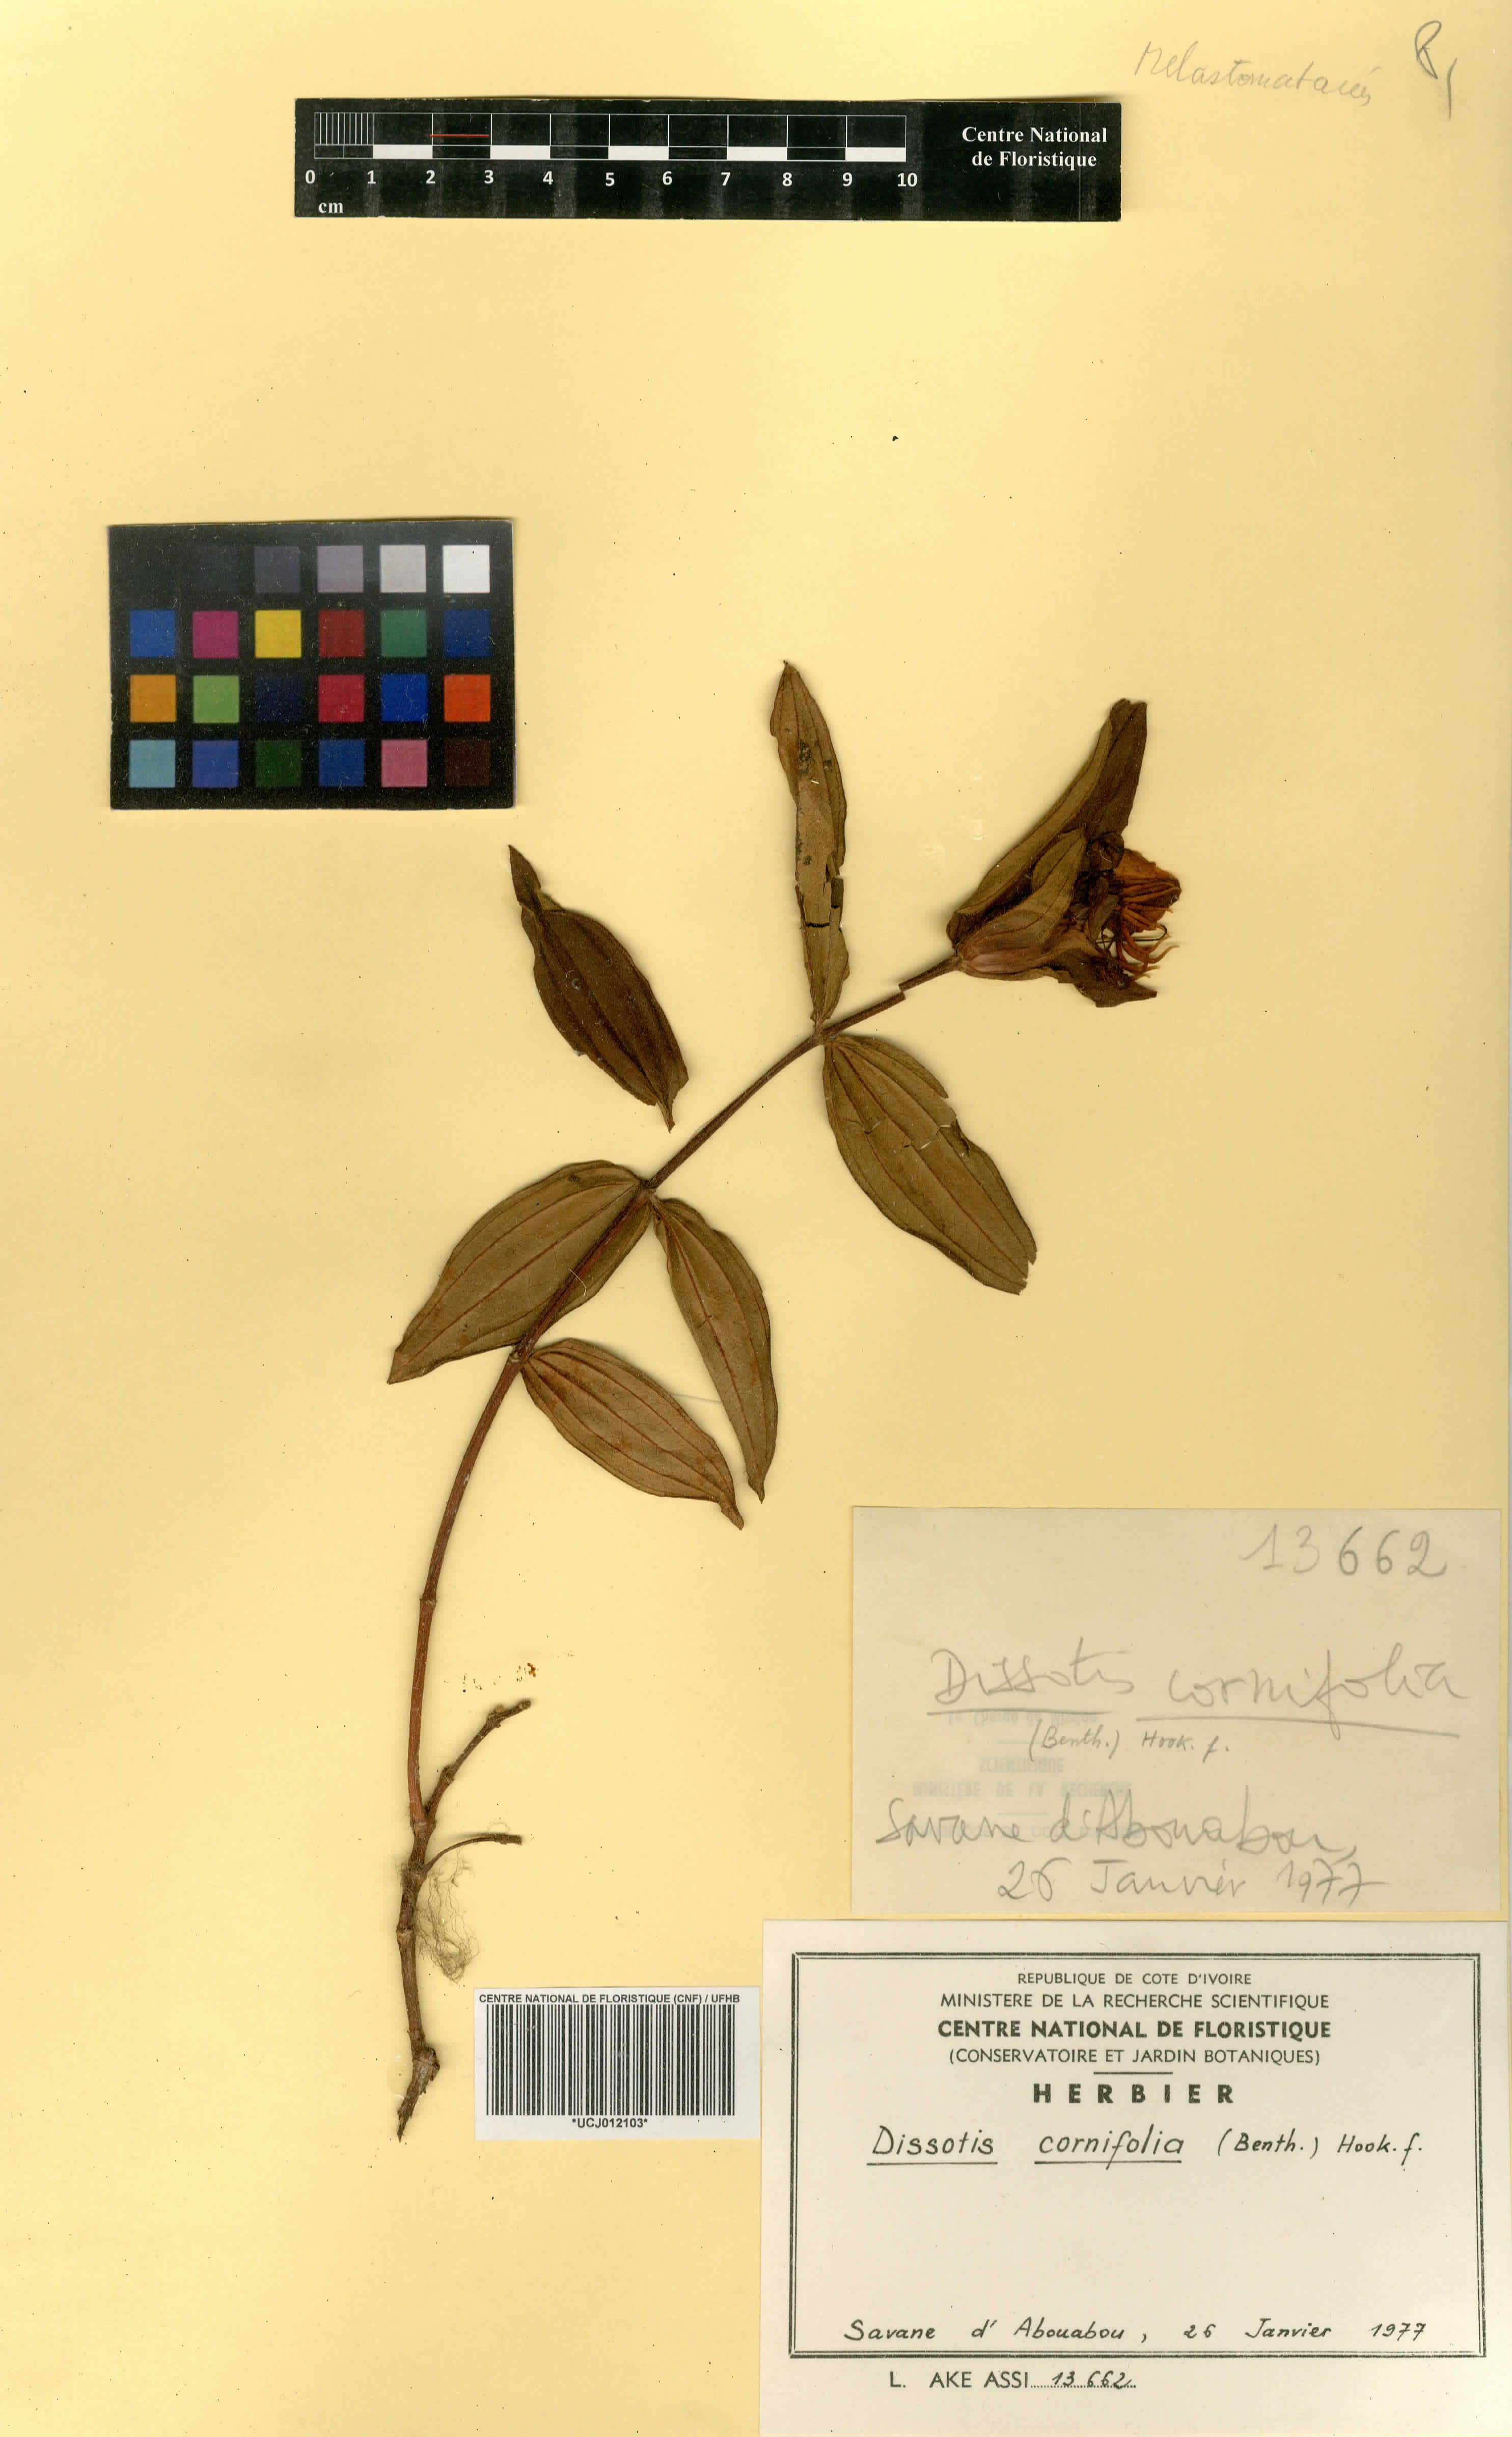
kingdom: Plantae
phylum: Tracheophyta
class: Magnoliopsida
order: Myrtales
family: Melastomataceae
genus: Melastomastrum
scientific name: Melastomastrum cornifolium
